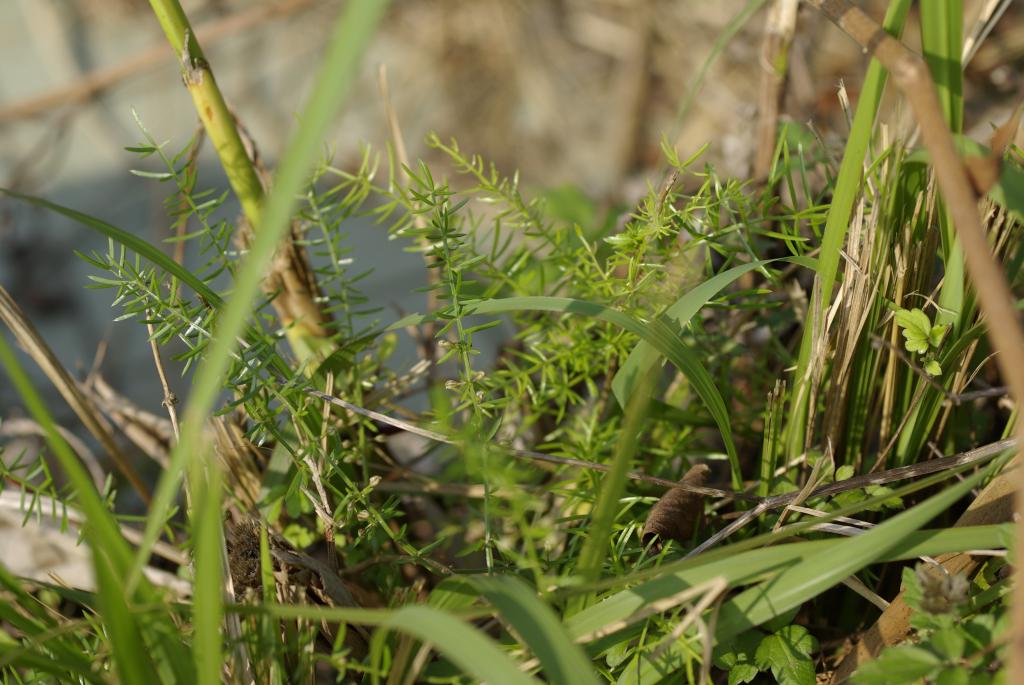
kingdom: Plantae
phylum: Tracheophyta
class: Liliopsida
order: Asparagales
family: Asparagaceae
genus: Asparagus
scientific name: Asparagus cochinchinensis
